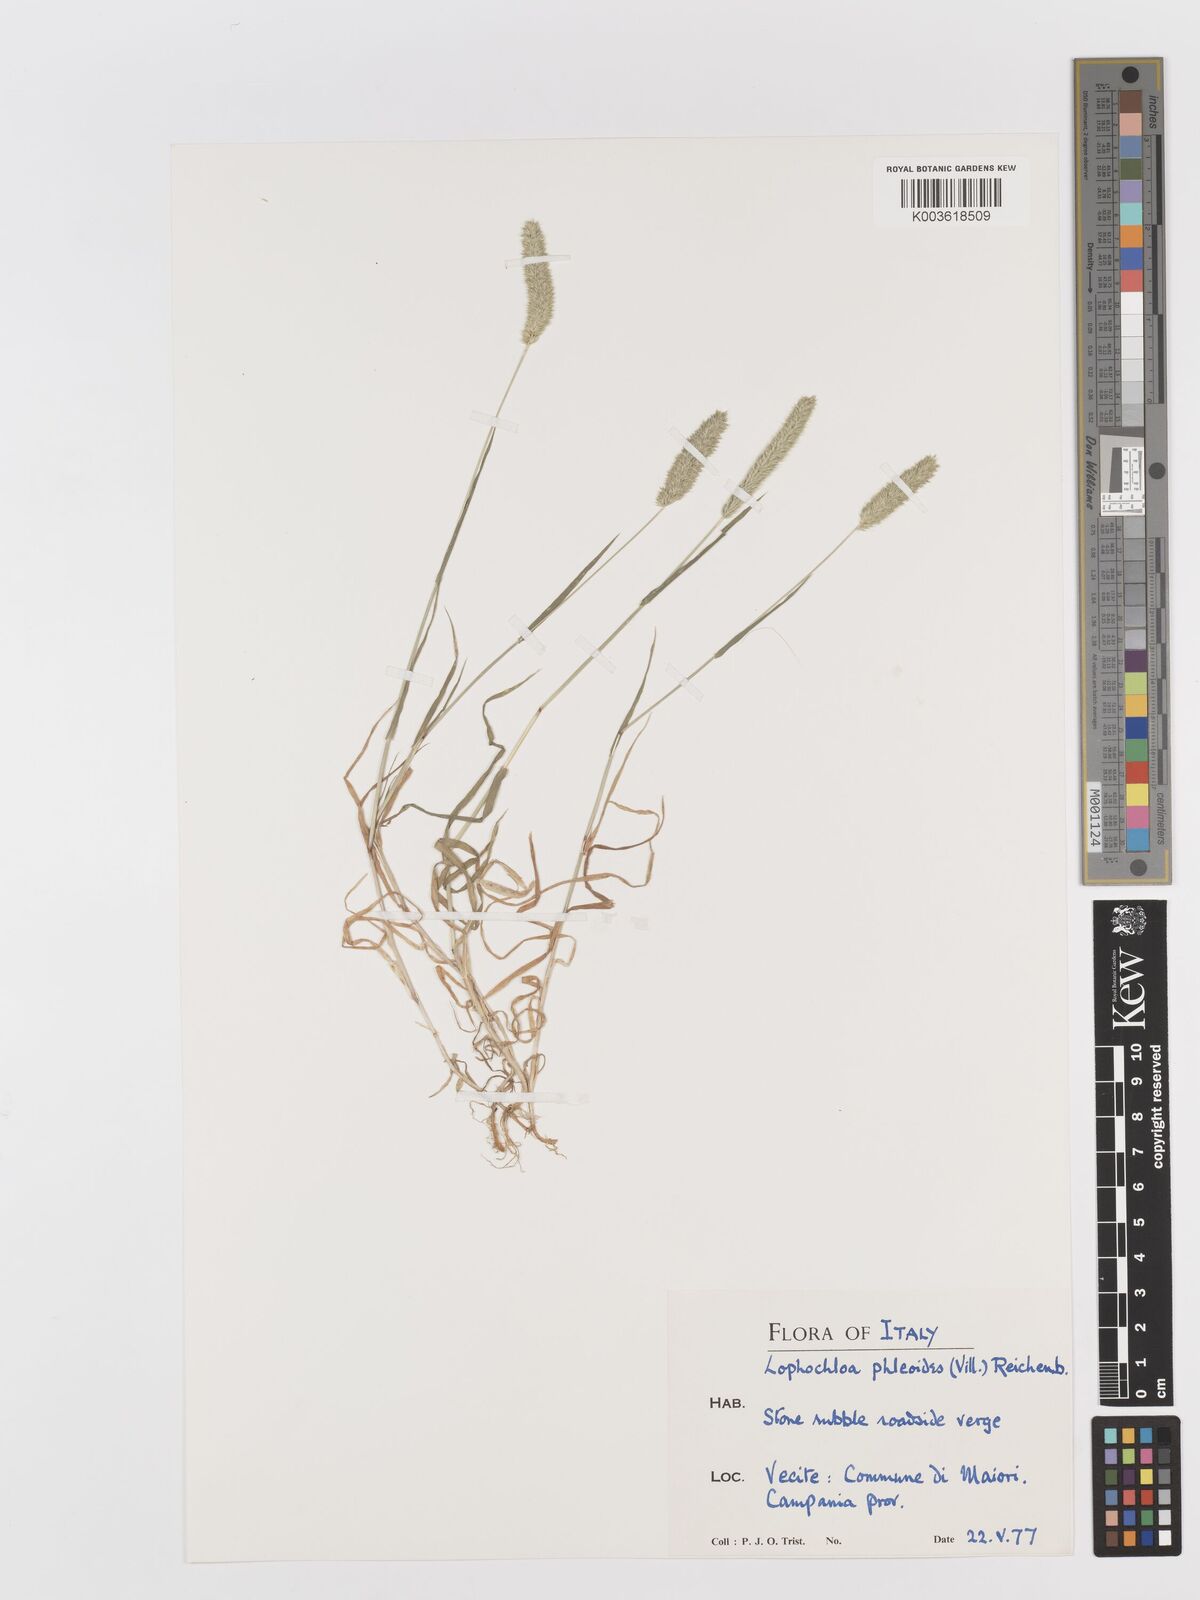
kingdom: Plantae
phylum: Tracheophyta
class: Liliopsida
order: Poales
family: Poaceae
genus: Rostraria
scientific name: Rostraria cristata
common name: Mediterranean hair-grass
